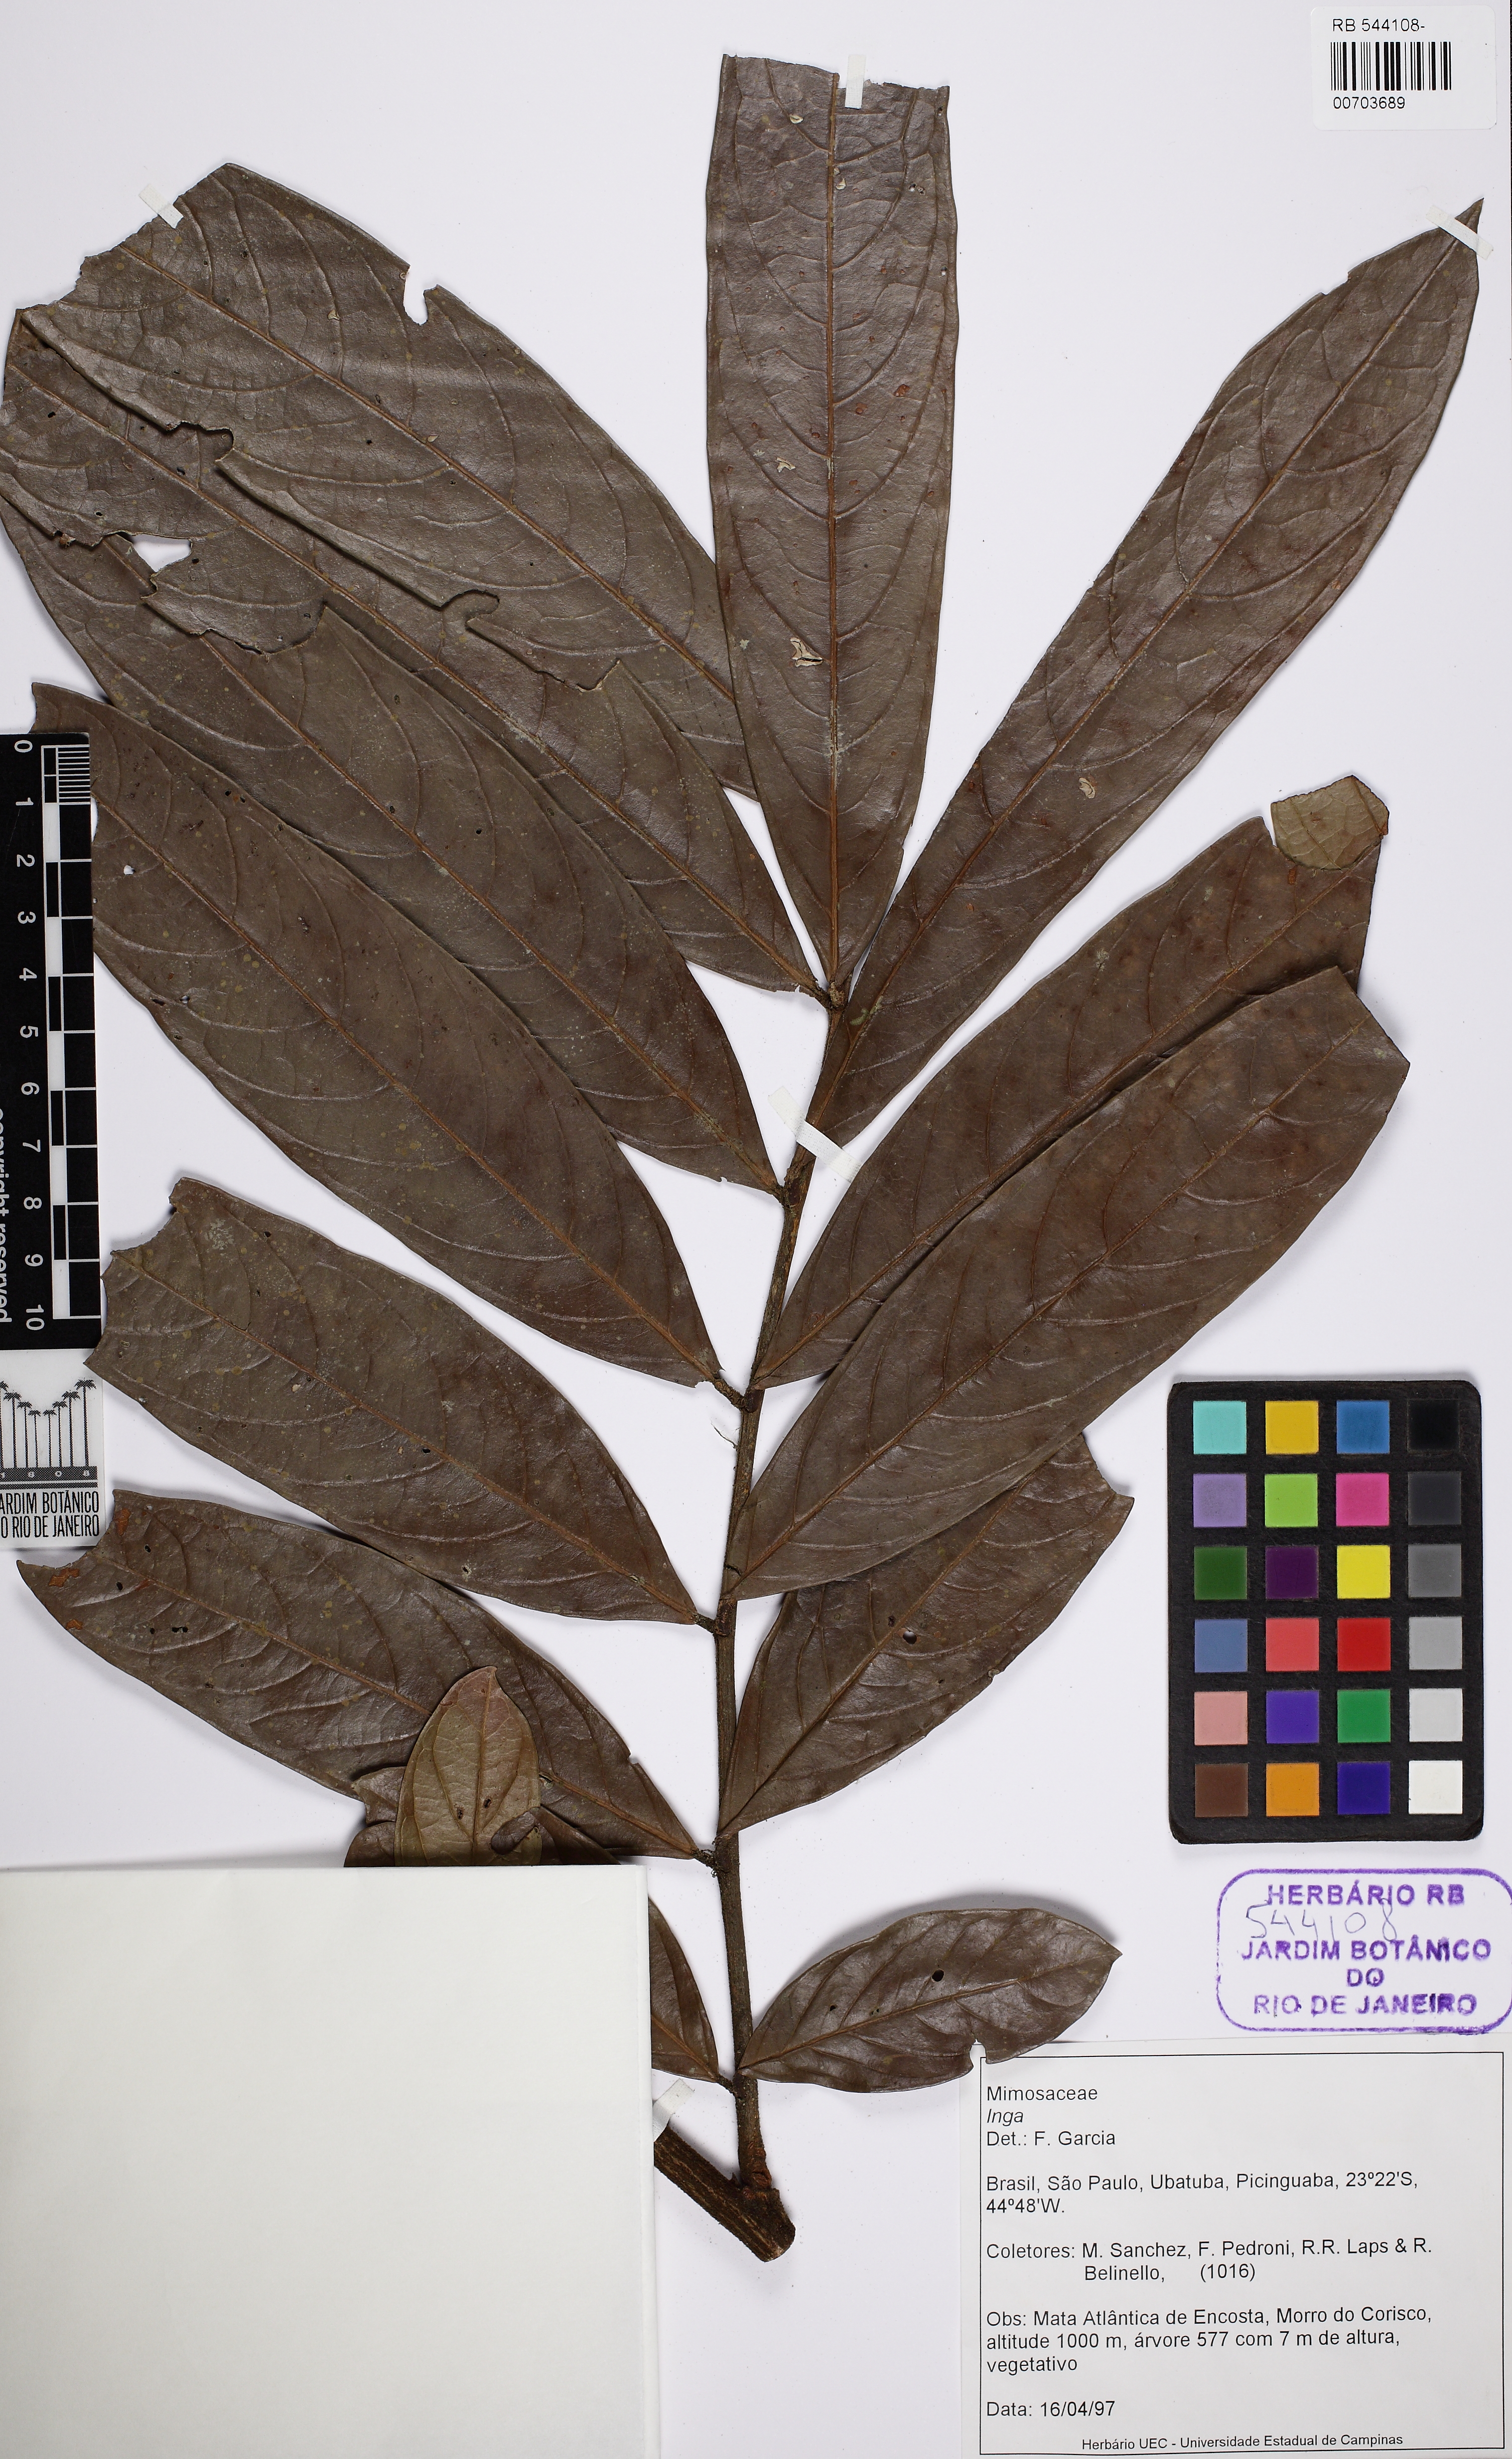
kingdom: Plantae
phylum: Tracheophyta
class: Magnoliopsida
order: Fabales
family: Fabaceae
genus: Inga
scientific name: Inga
